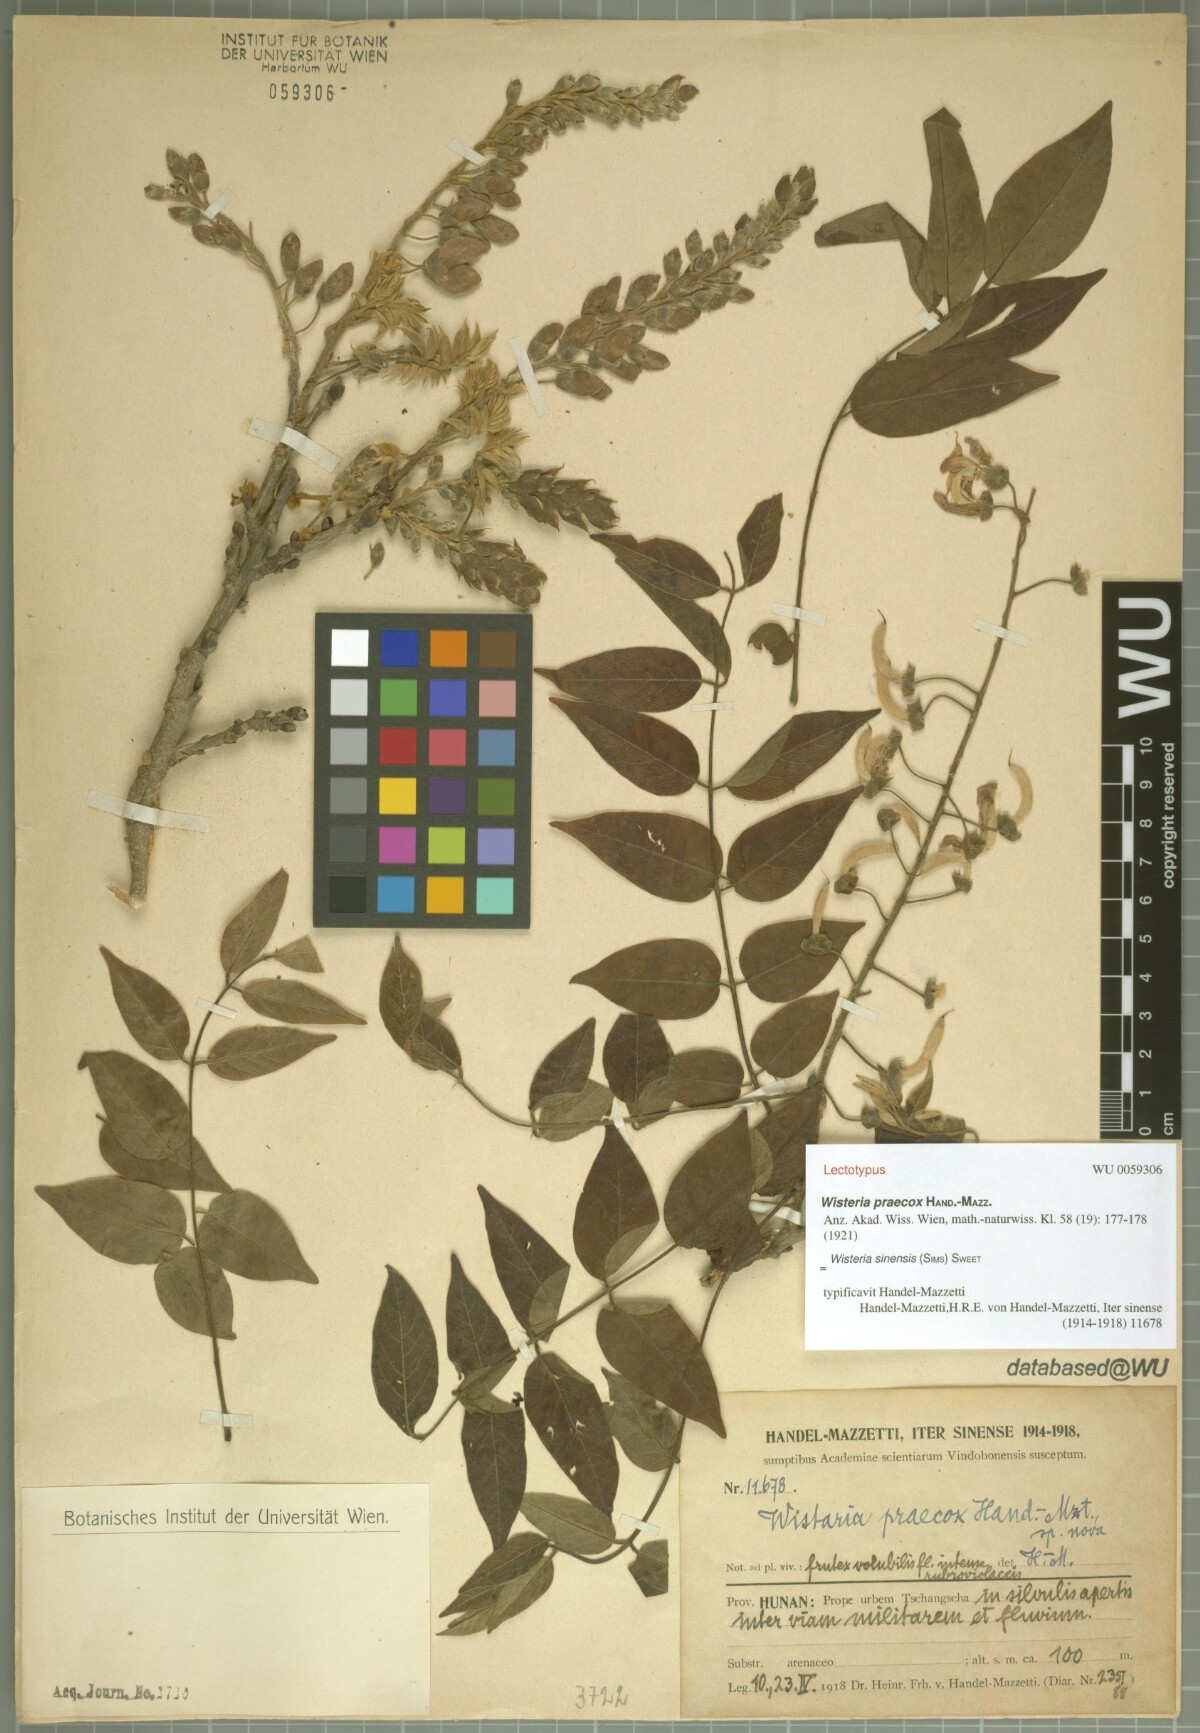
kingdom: Plantae
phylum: Tracheophyta
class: Magnoliopsida
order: Fabales
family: Fabaceae
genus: Wisteria
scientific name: Wisteria sinensis
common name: Chinese wisteria
